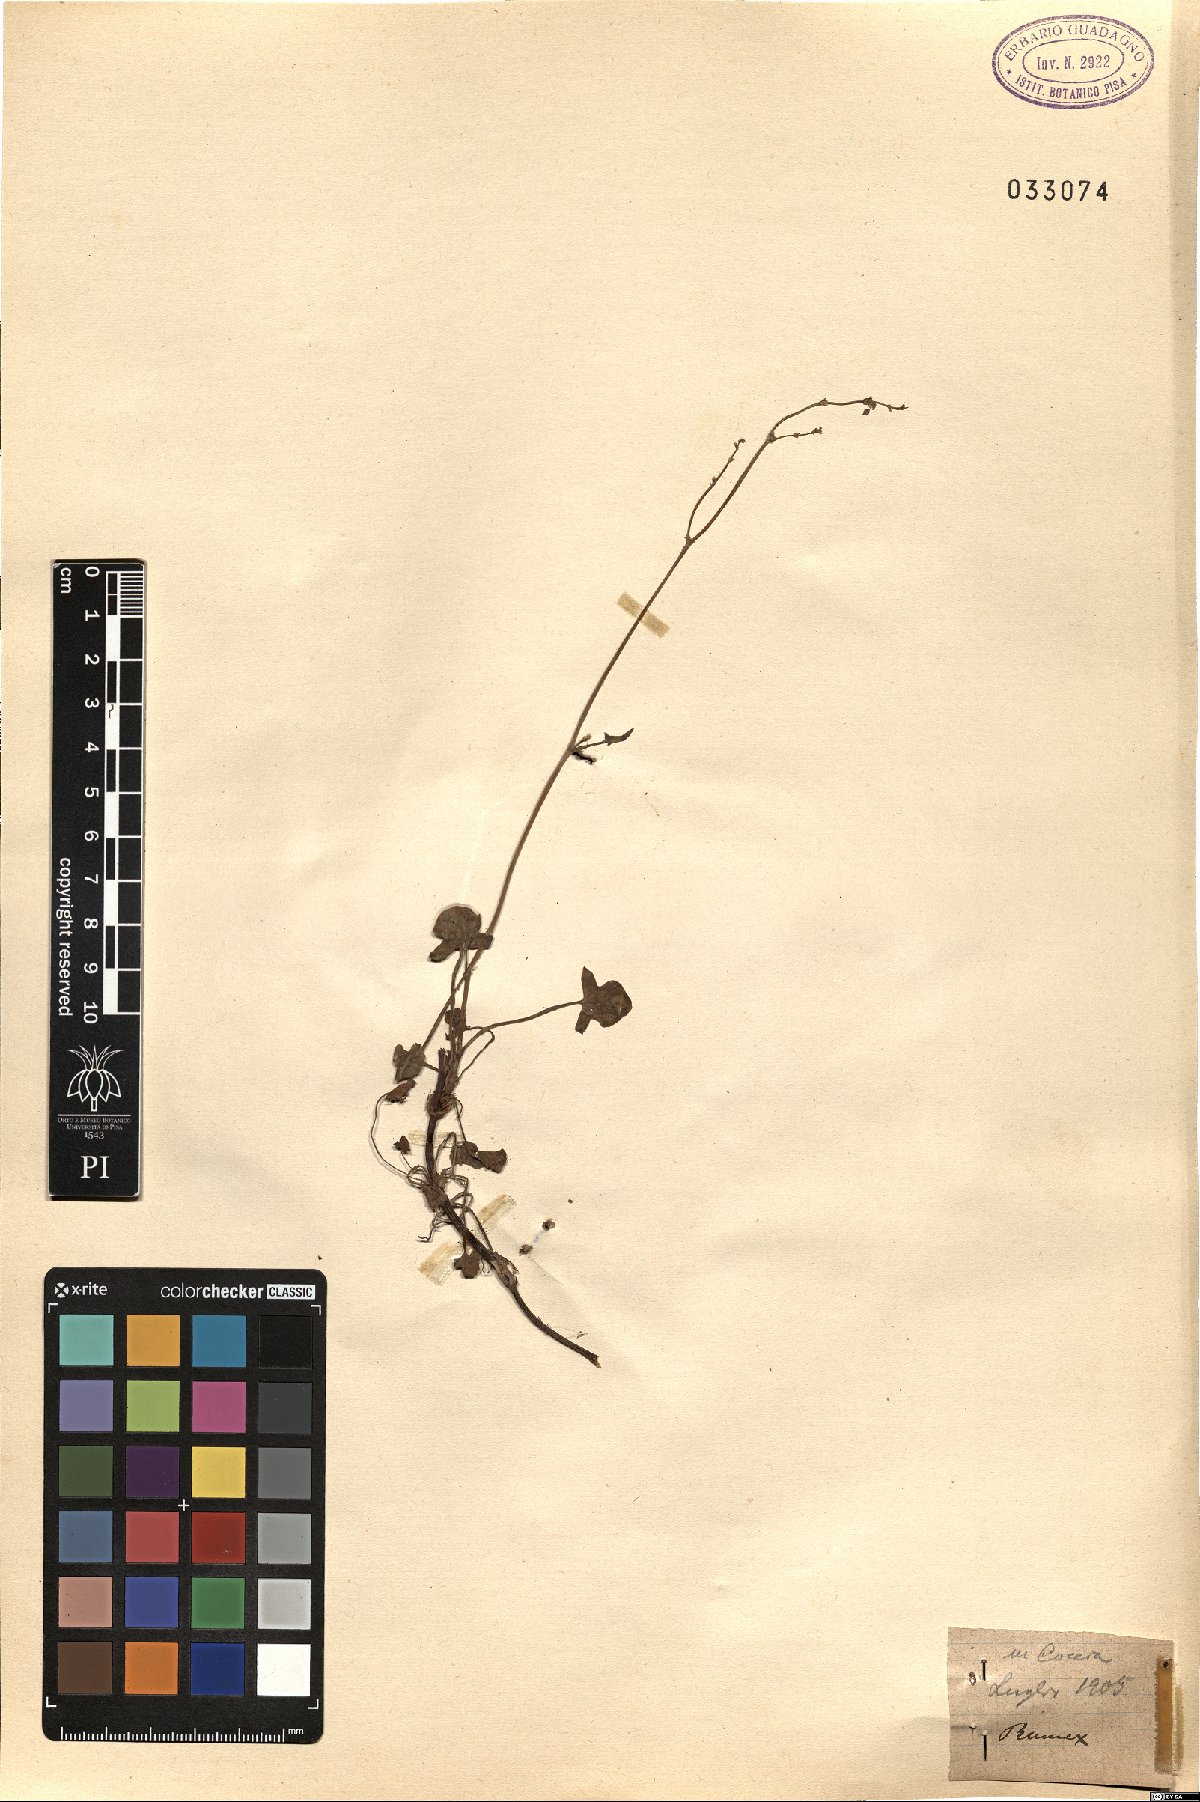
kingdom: Plantae
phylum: Tracheophyta
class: Magnoliopsida
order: Caryophyllales
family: Polygonaceae
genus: Rumex
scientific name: Rumex
